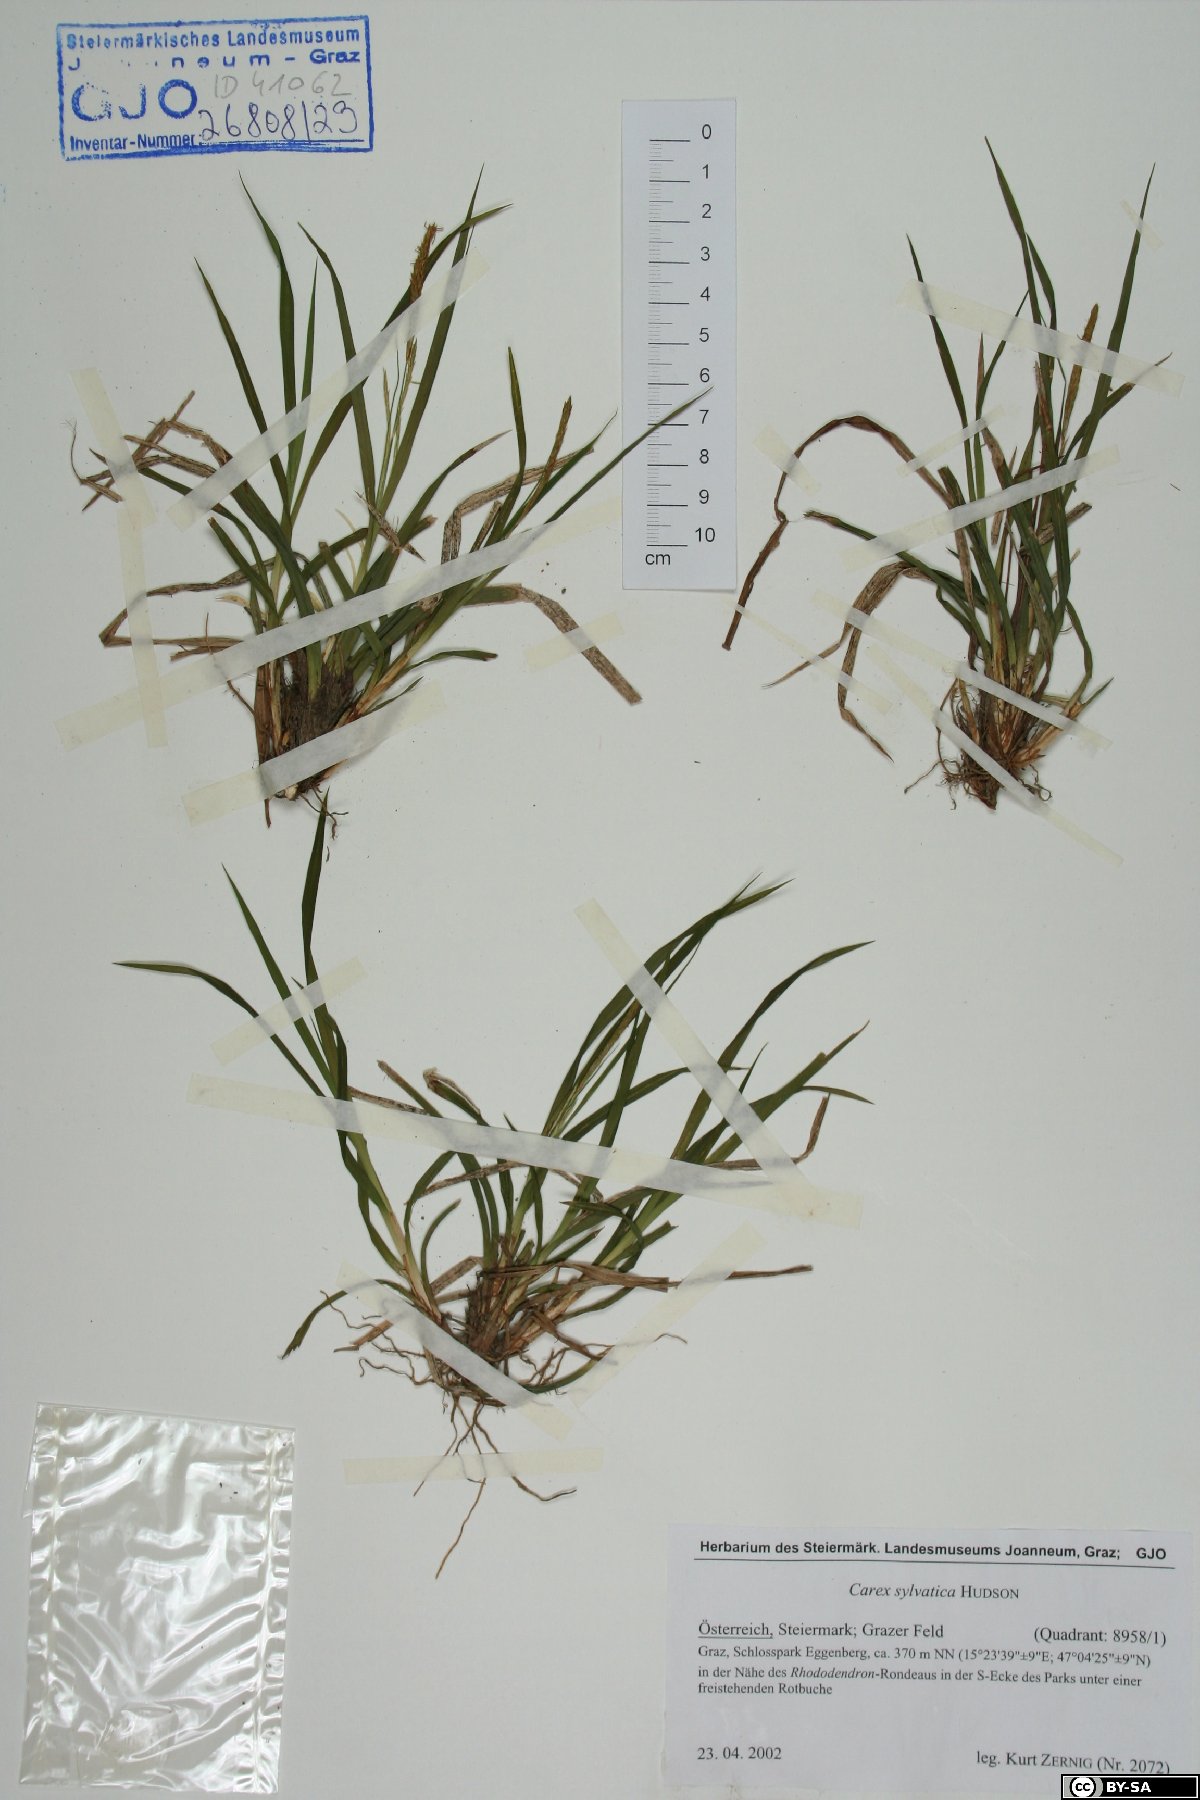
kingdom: Plantae
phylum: Tracheophyta
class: Liliopsida
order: Poales
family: Cyperaceae
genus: Carex
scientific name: Carex sylvatica
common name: Wood-sedge
